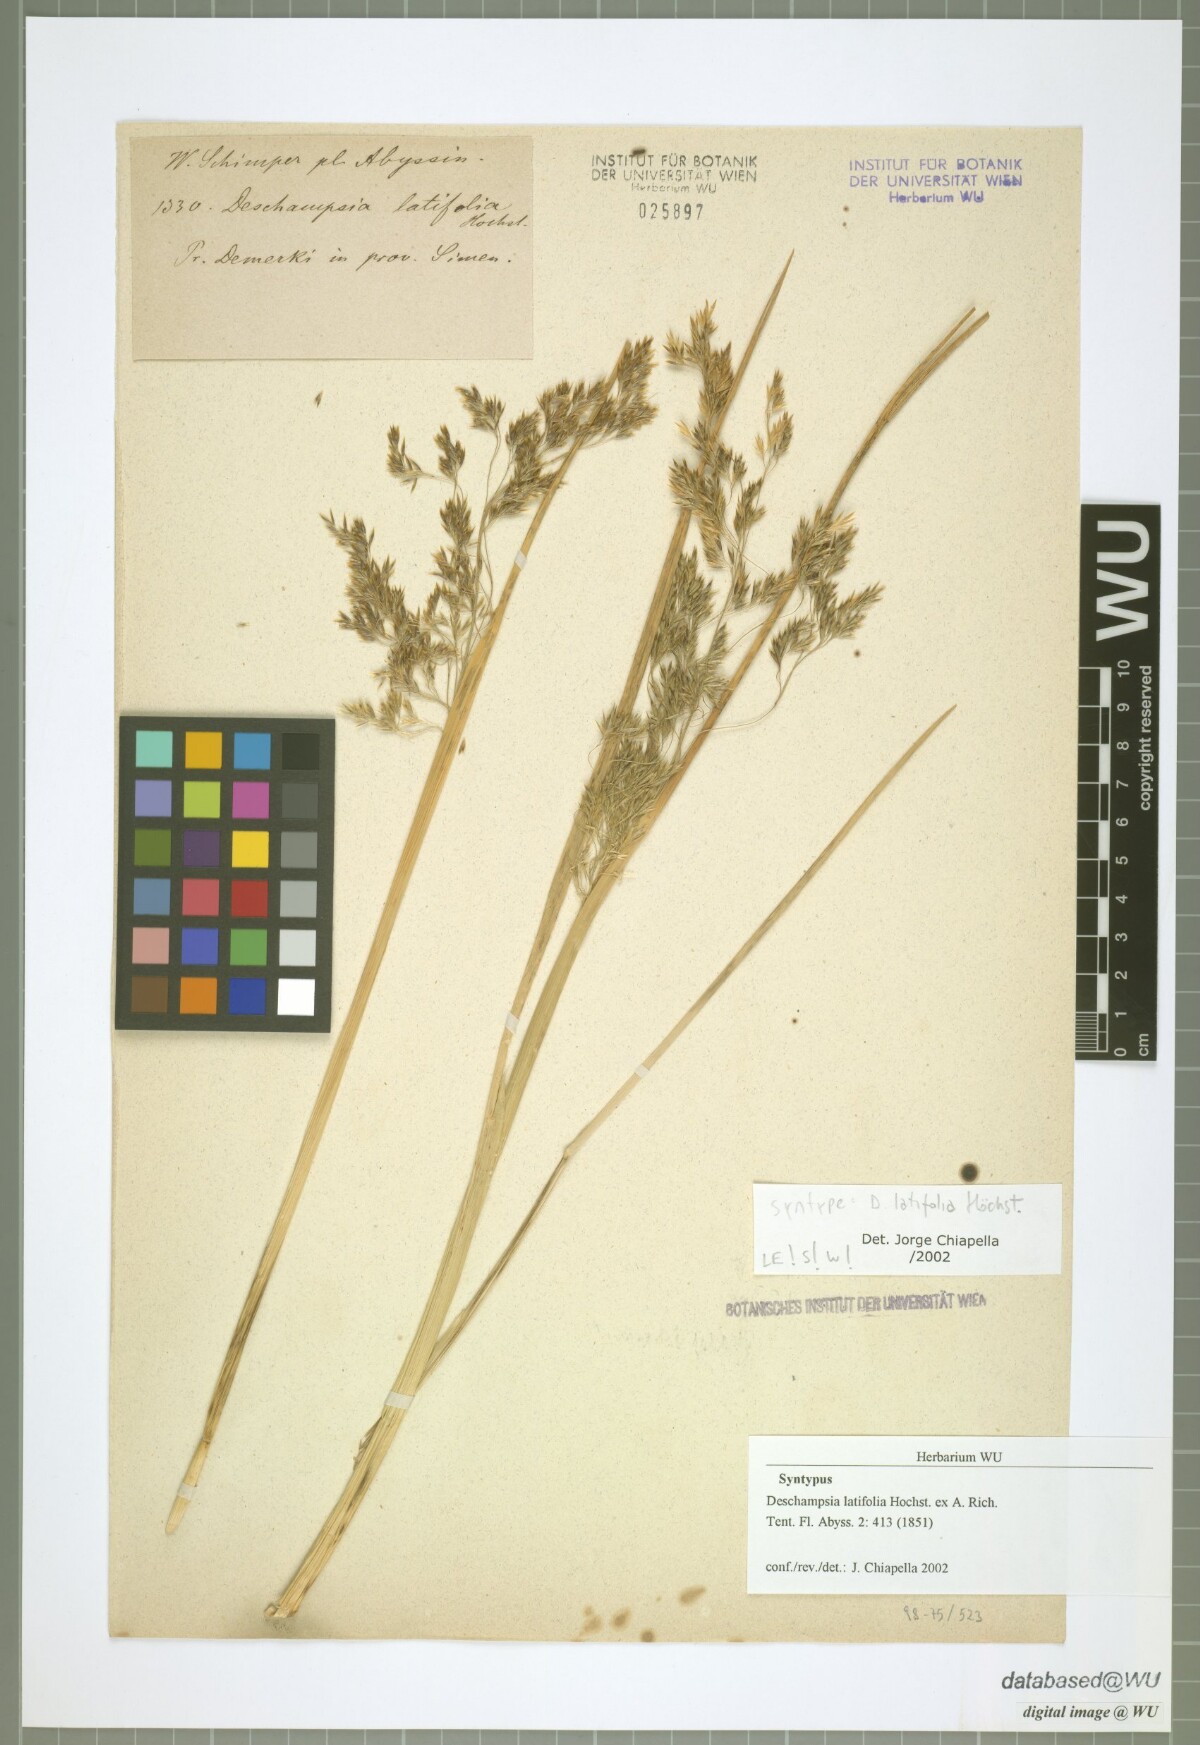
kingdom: Plantae
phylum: Tracheophyta
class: Liliopsida
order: Poales
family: Poaceae
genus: Deschampsia
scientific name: Deschampsia cespitosa
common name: Tufted hair-grass
